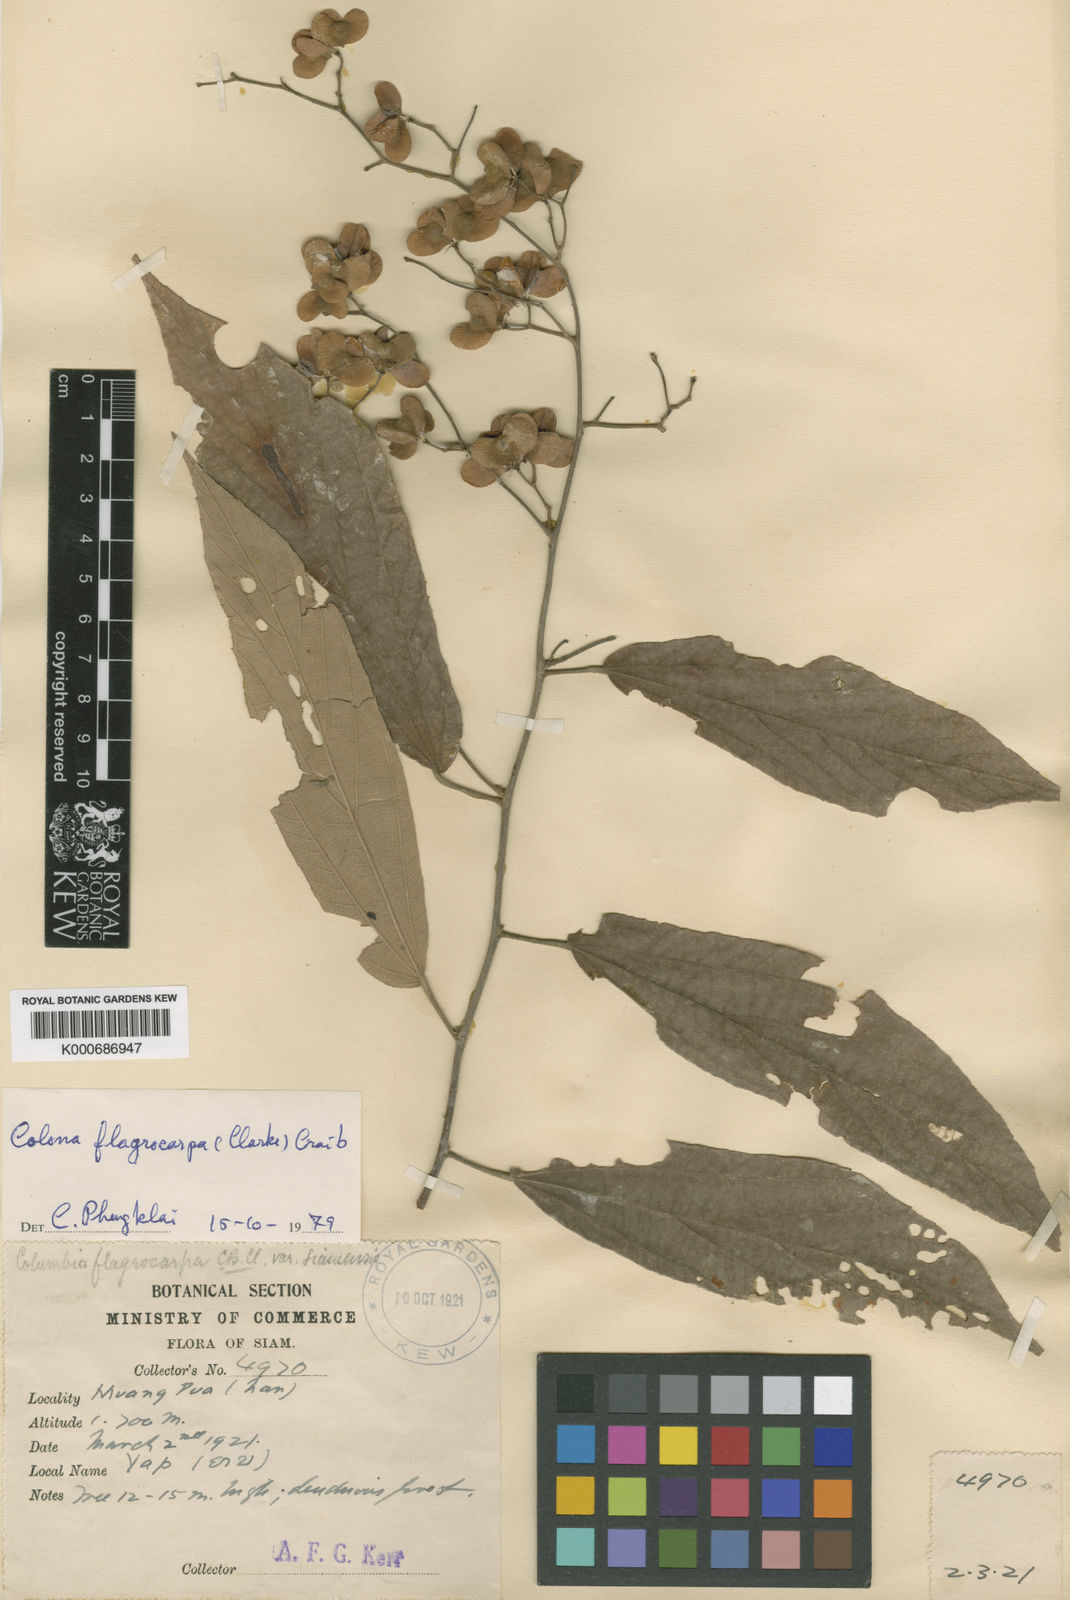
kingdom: Plantae
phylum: Tracheophyta
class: Magnoliopsida
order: Malvales
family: Malvaceae
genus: Colona
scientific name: Colona flagrocarpa
